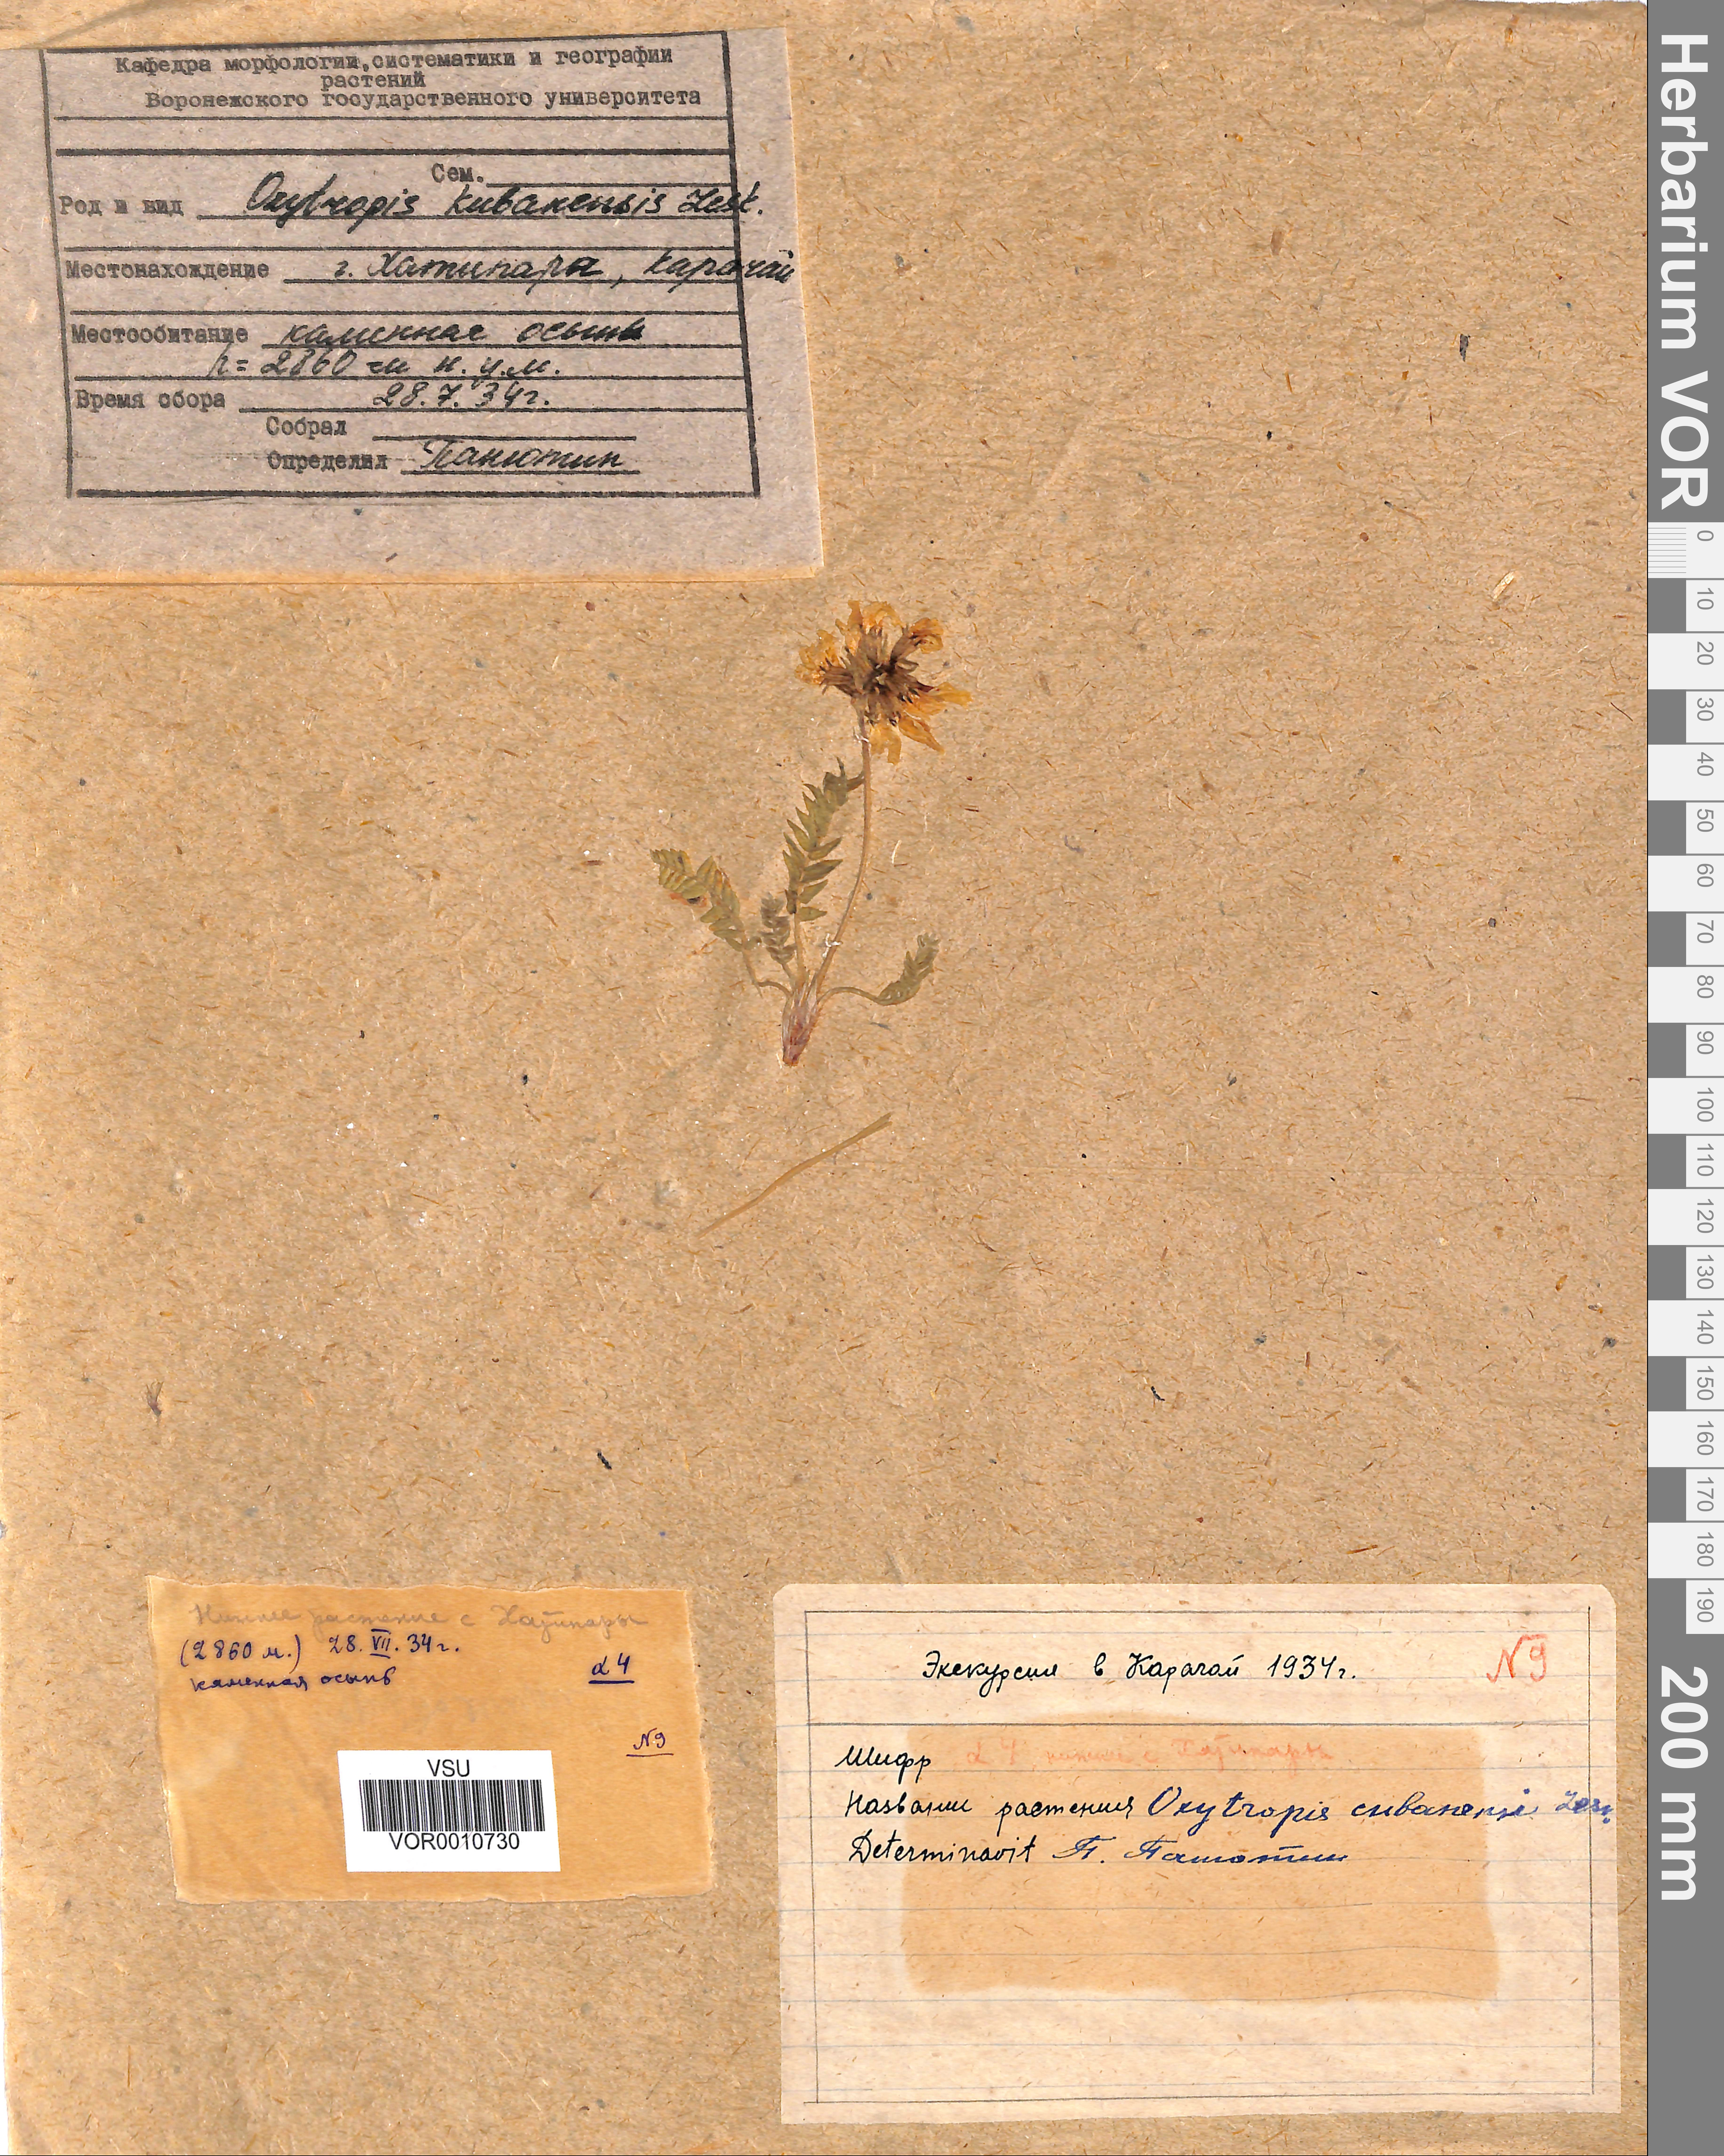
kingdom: Plantae
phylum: Tracheophyta
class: Magnoliopsida
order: Fabales
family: Fabaceae
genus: Oxytropis
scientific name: Oxytropis kubanensis
